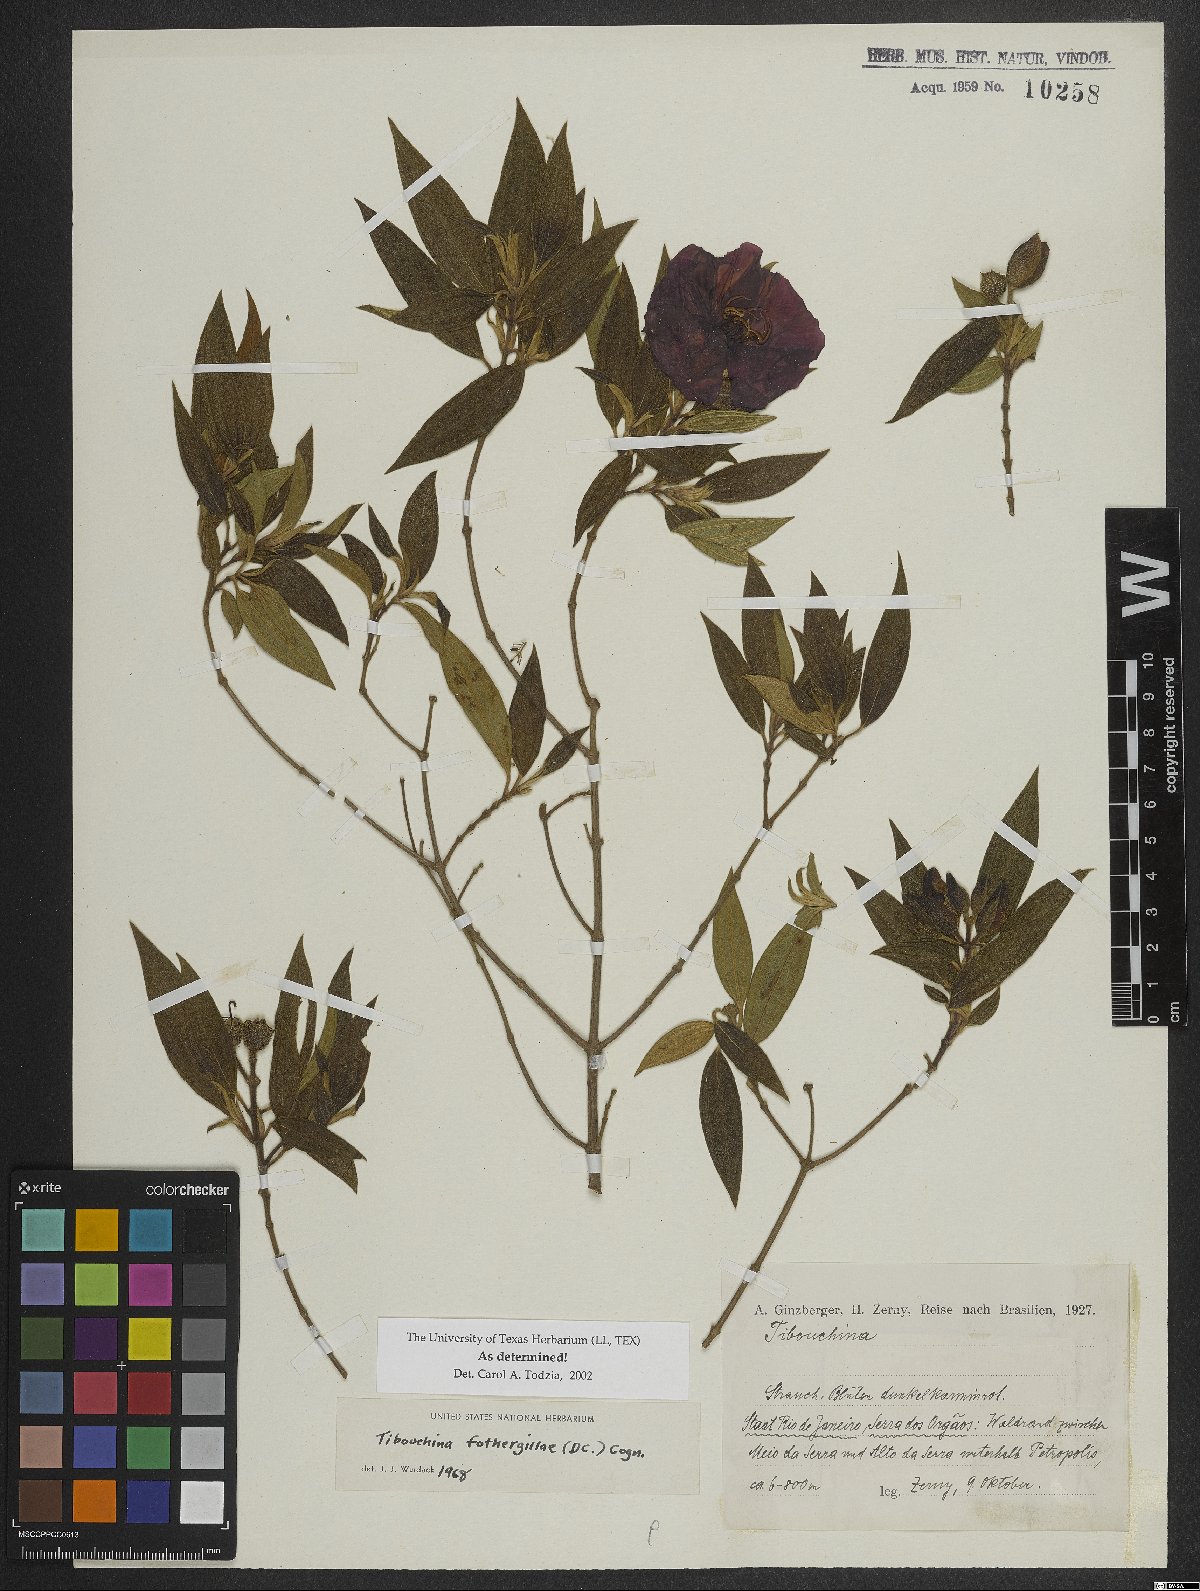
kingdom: Plantae
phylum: Tracheophyta
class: Magnoliopsida
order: Myrtales
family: Melastomataceae
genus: Pleroma
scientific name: Pleroma fothergillae
